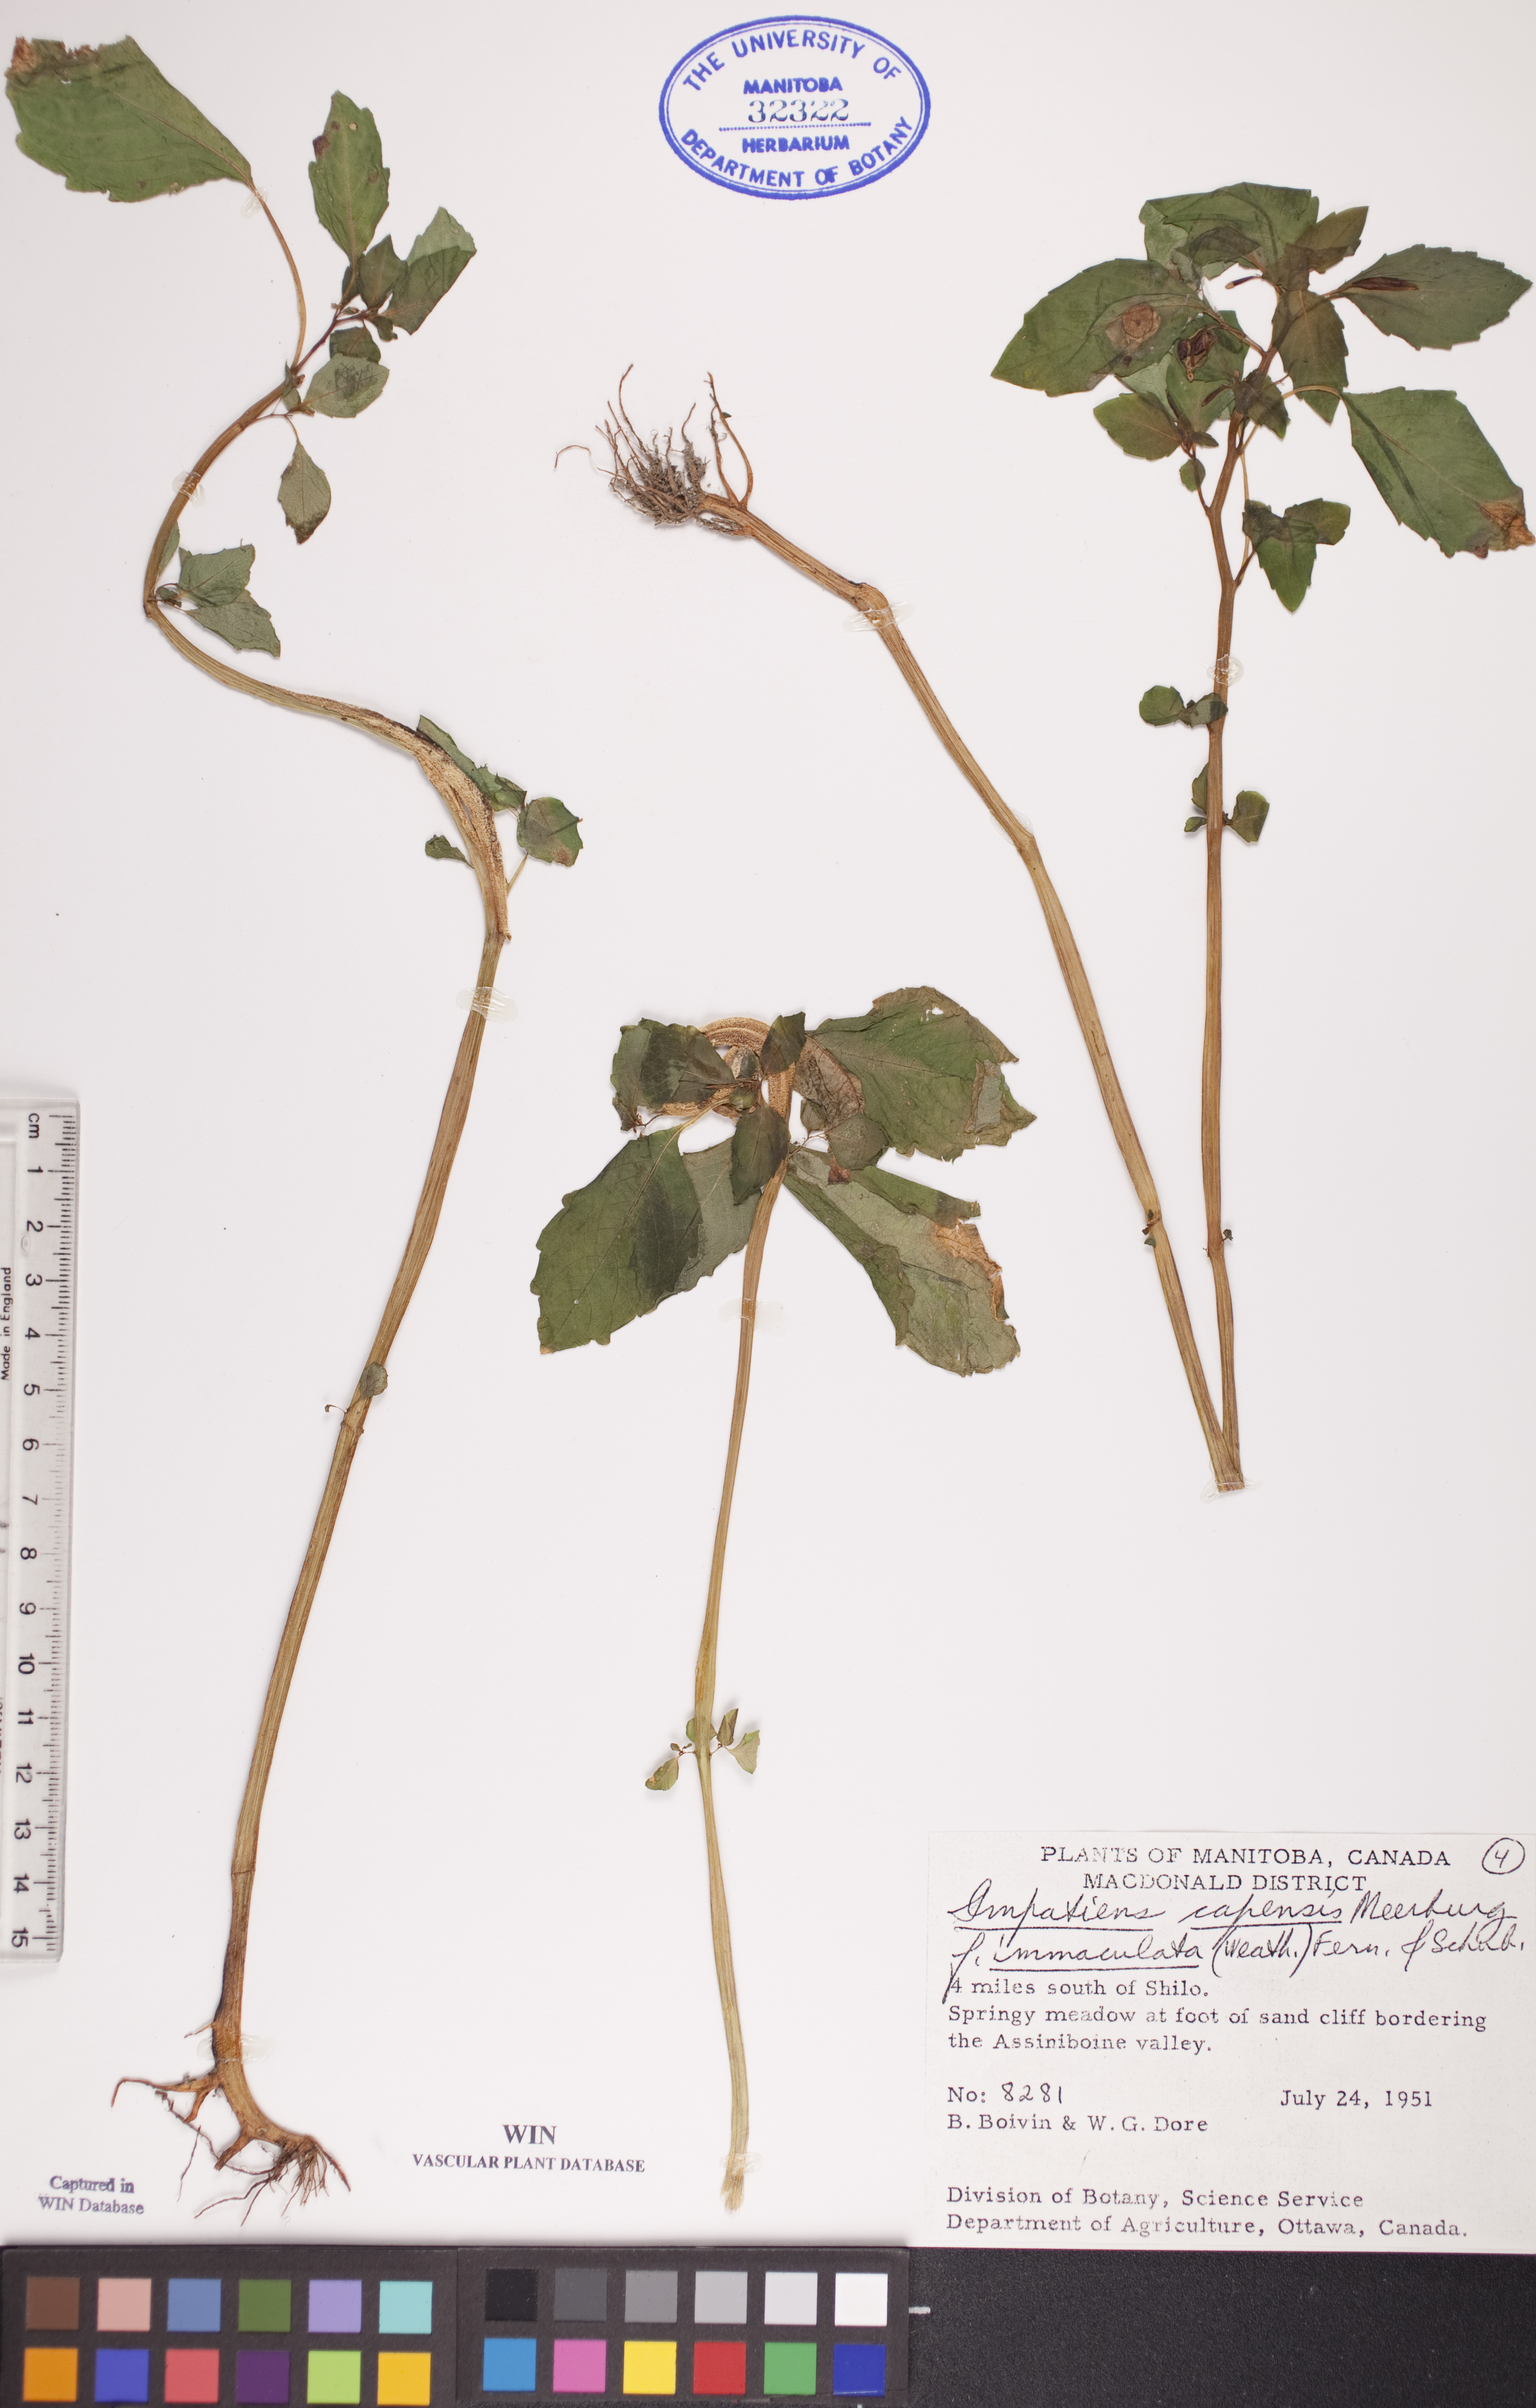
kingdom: Plantae
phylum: Tracheophyta
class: Magnoliopsida
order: Ericales
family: Balsaminaceae
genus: Impatiens
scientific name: Impatiens capensis
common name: Orange balsam
